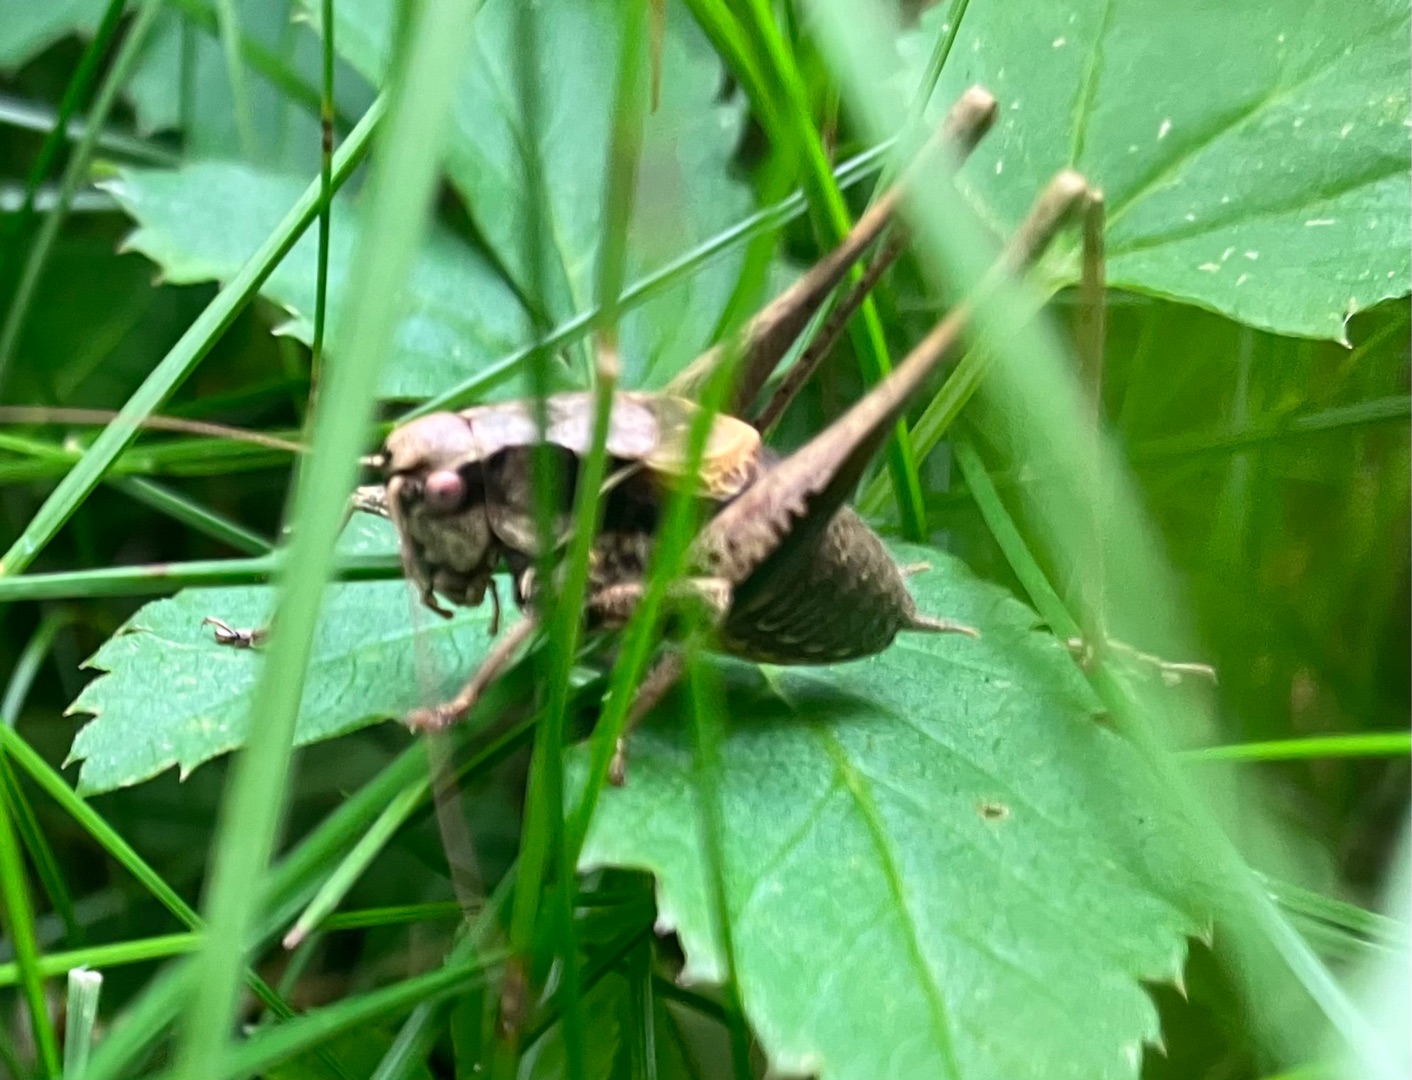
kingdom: Animalia
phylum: Arthropoda
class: Insecta
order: Orthoptera
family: Tettigoniidae
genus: Pholidoptera
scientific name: Pholidoptera griseoaptera
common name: Buskgræshoppe
